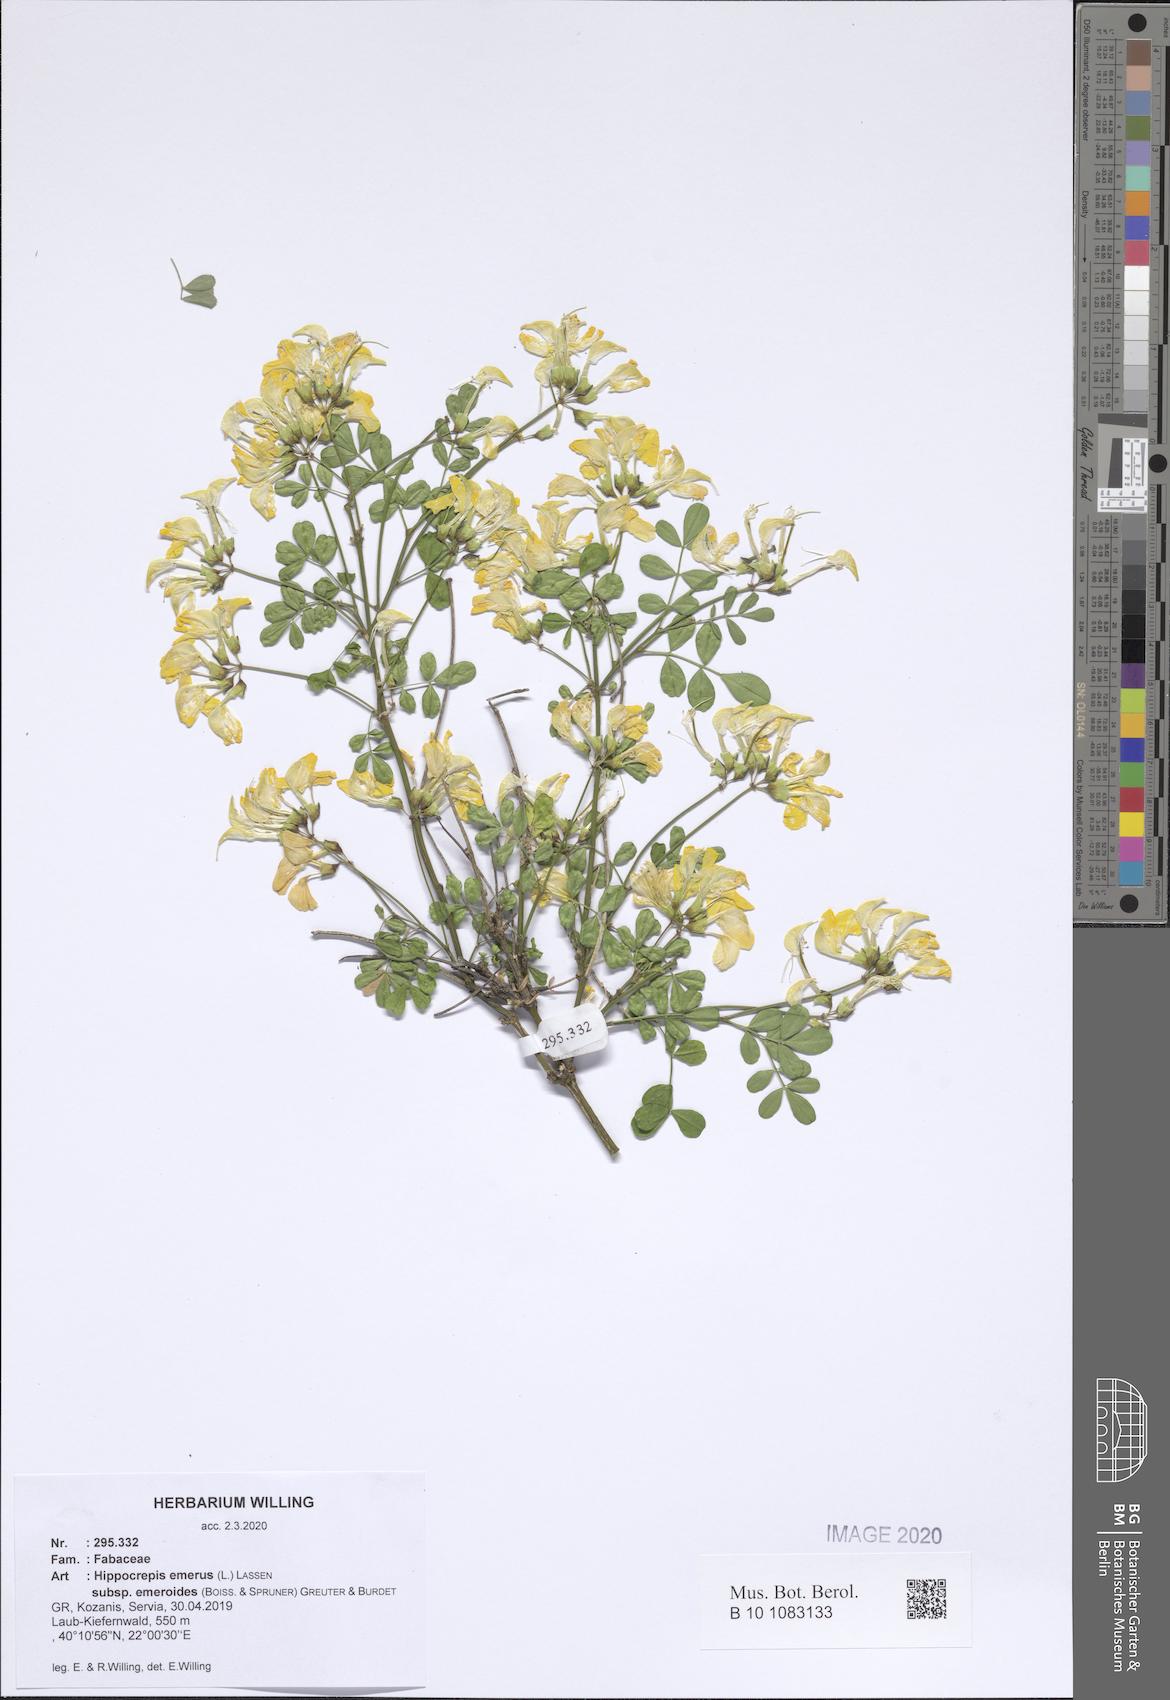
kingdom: Plantae
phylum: Tracheophyta
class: Magnoliopsida
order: Fabales
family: Fabaceae
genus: Hippocrepis
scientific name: Hippocrepis emerus
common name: Scorpion senna
